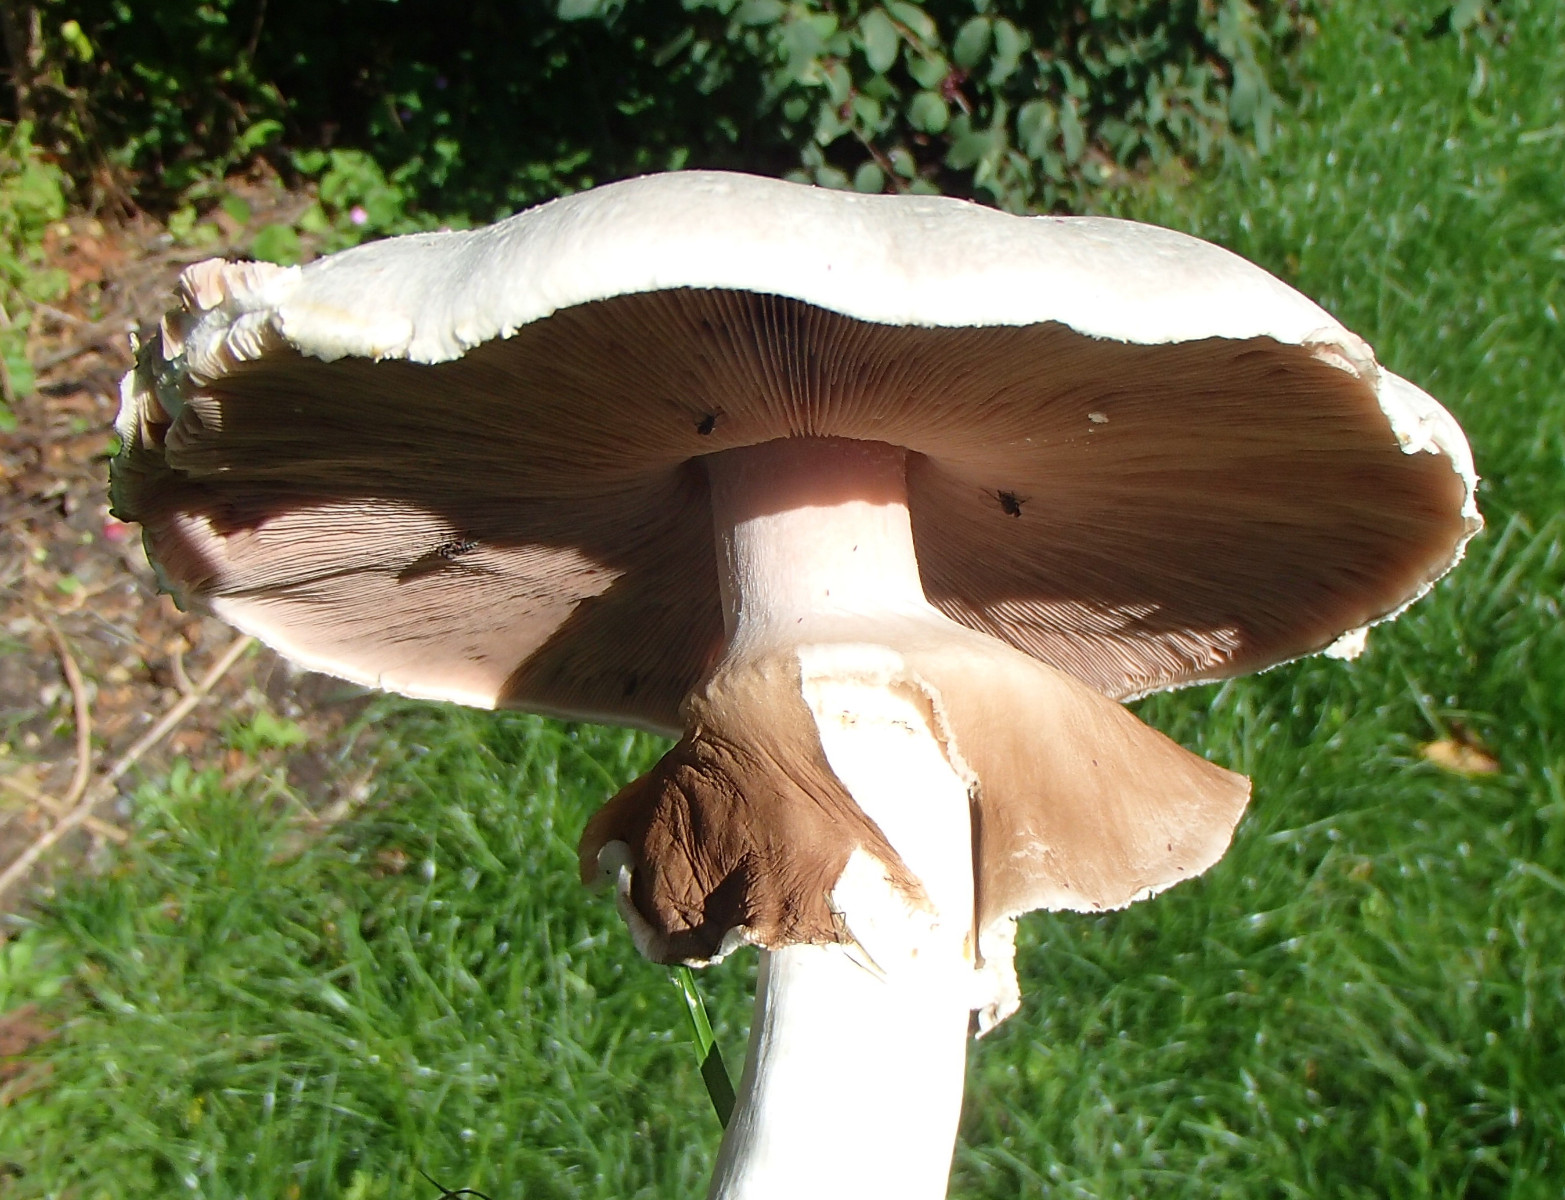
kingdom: Fungi
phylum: Basidiomycota
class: Agaricomycetes
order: Agaricales
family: Agaricaceae
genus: Agaricus
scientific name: Agaricus xanthodermus
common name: karbol-champignon
